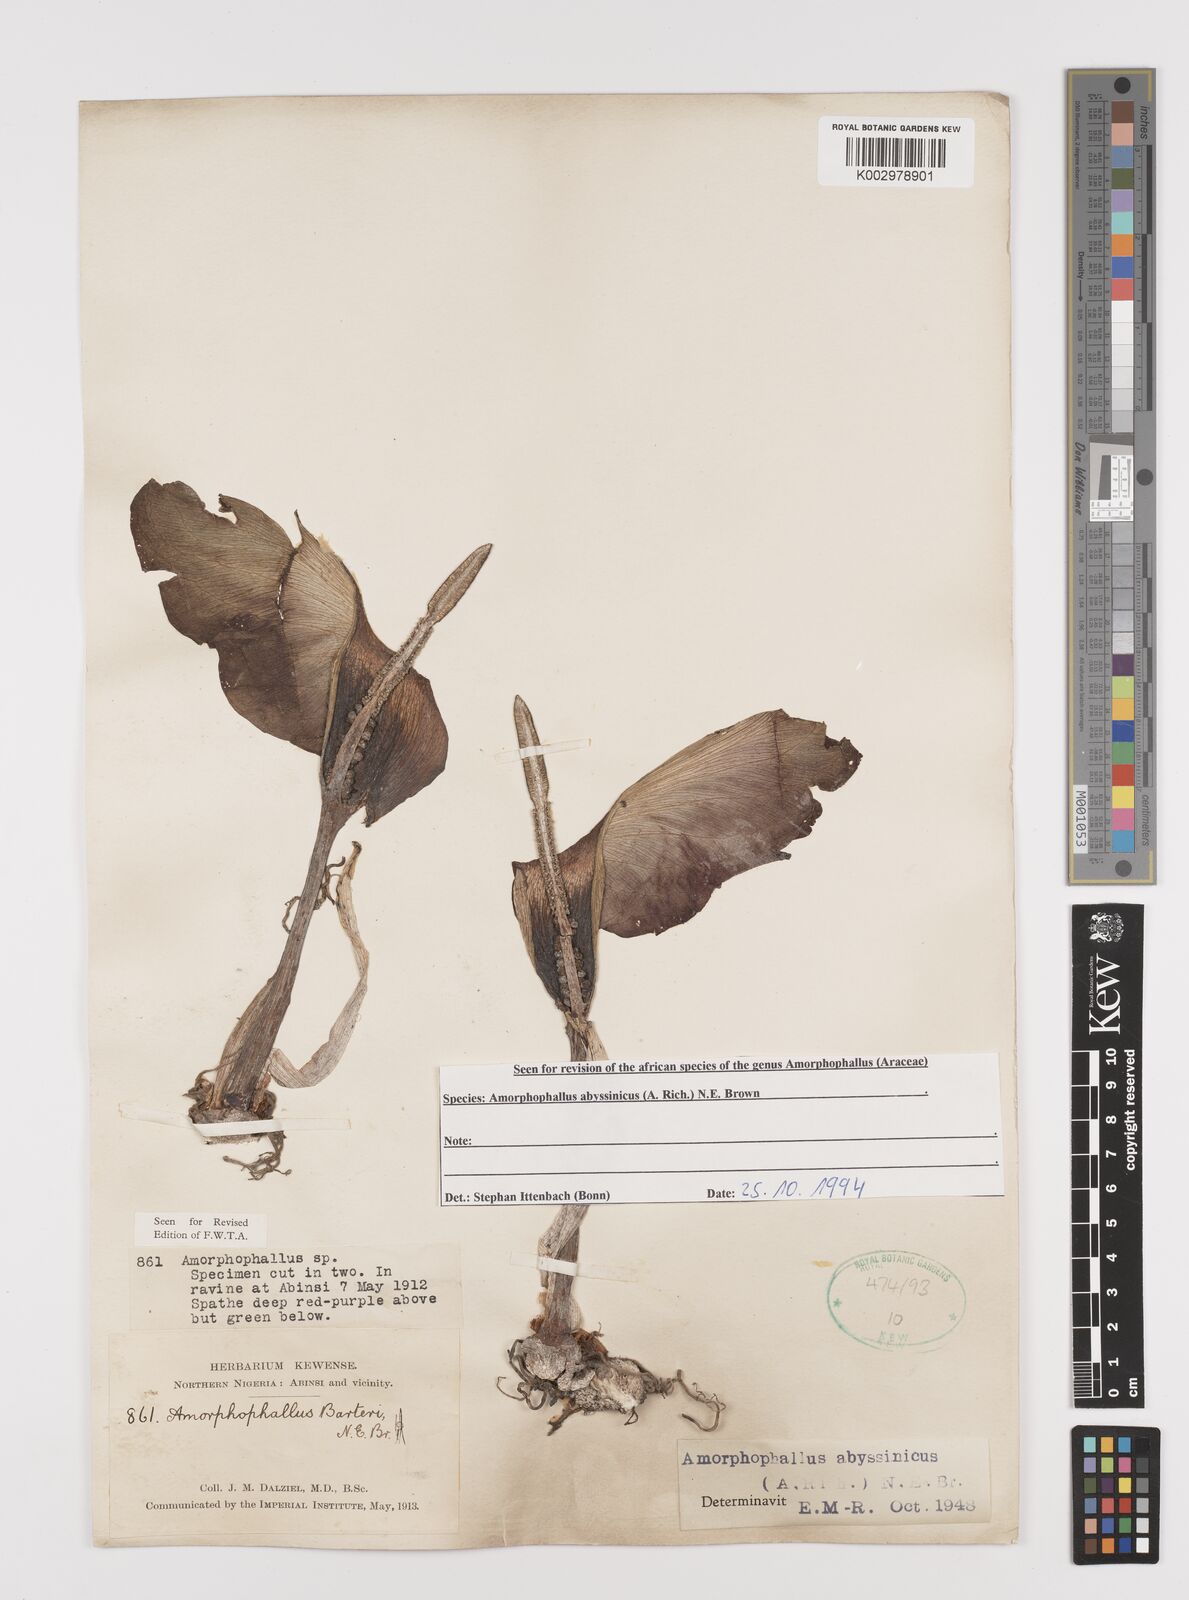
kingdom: Plantae
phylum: Tracheophyta
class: Liliopsida
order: Alismatales
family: Araceae
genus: Amorphophallus
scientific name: Amorphophallus abyssinicus
